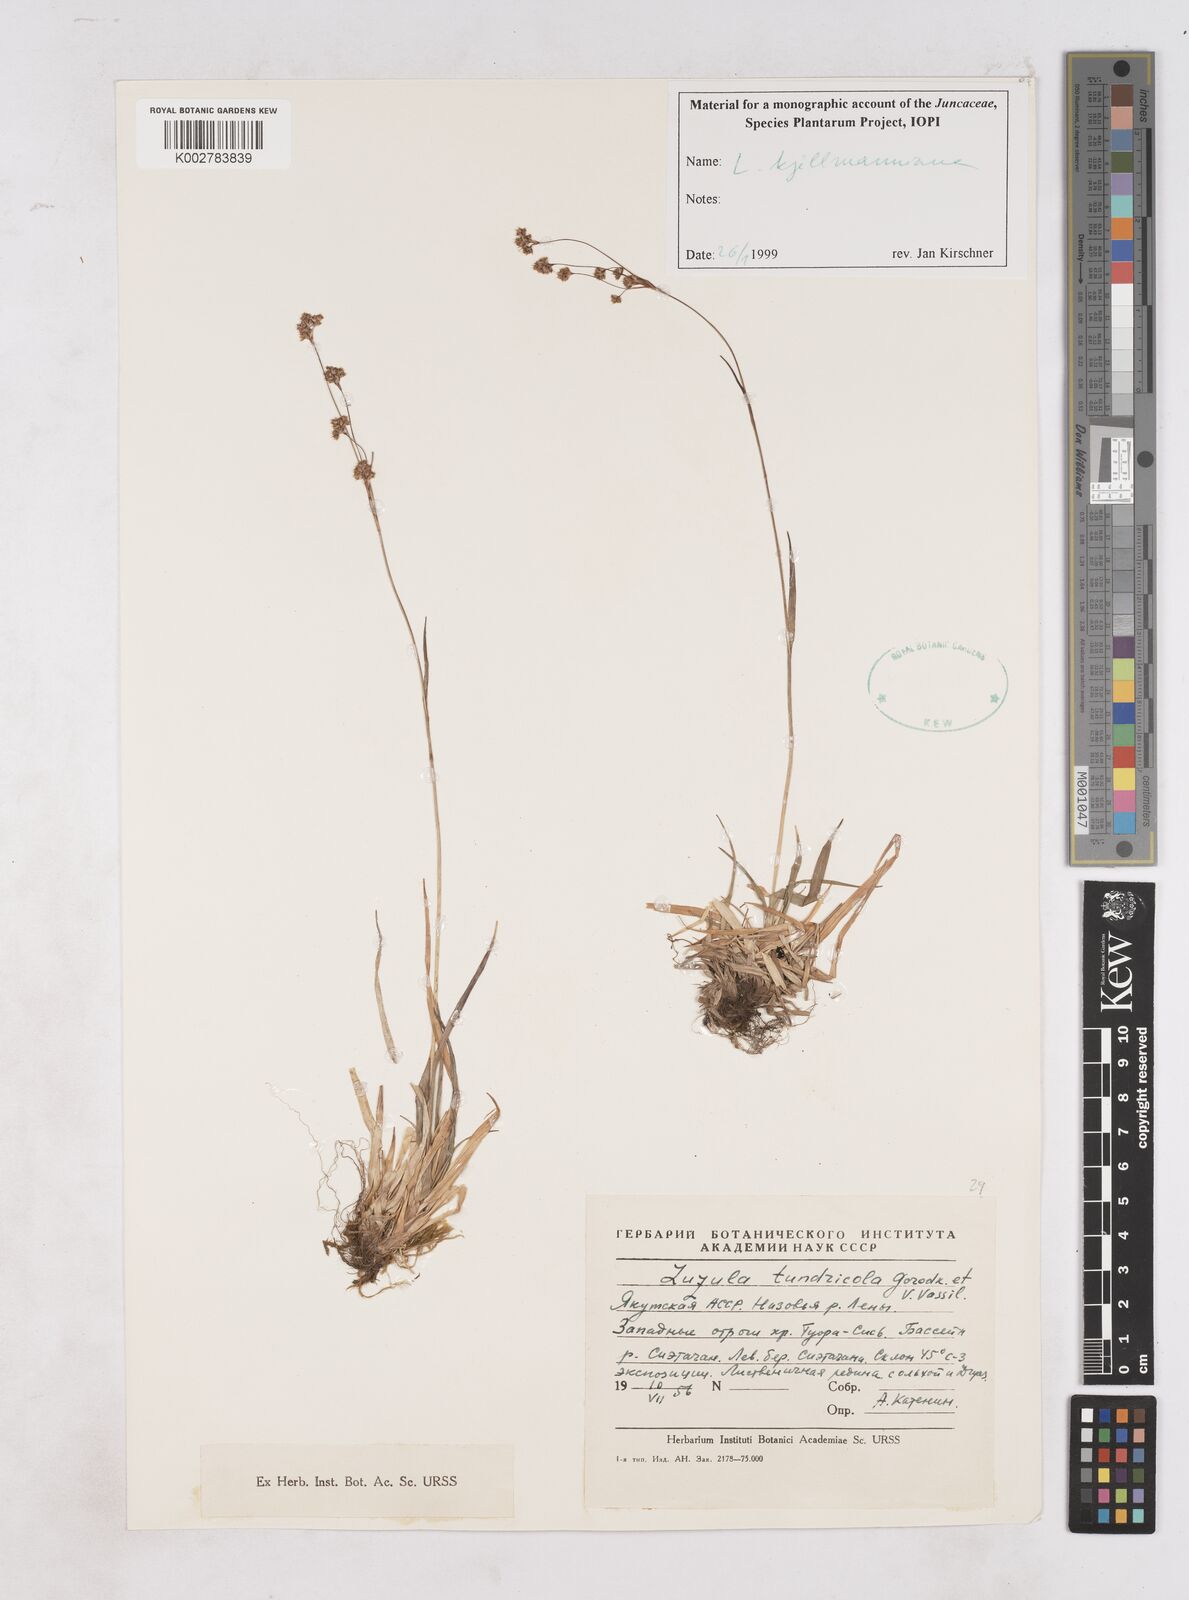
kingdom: Plantae
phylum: Tracheophyta
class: Liliopsida
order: Poales
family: Juncaceae
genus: Luzula
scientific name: Luzula kjellmaniana
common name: Kjellman's woodrush
